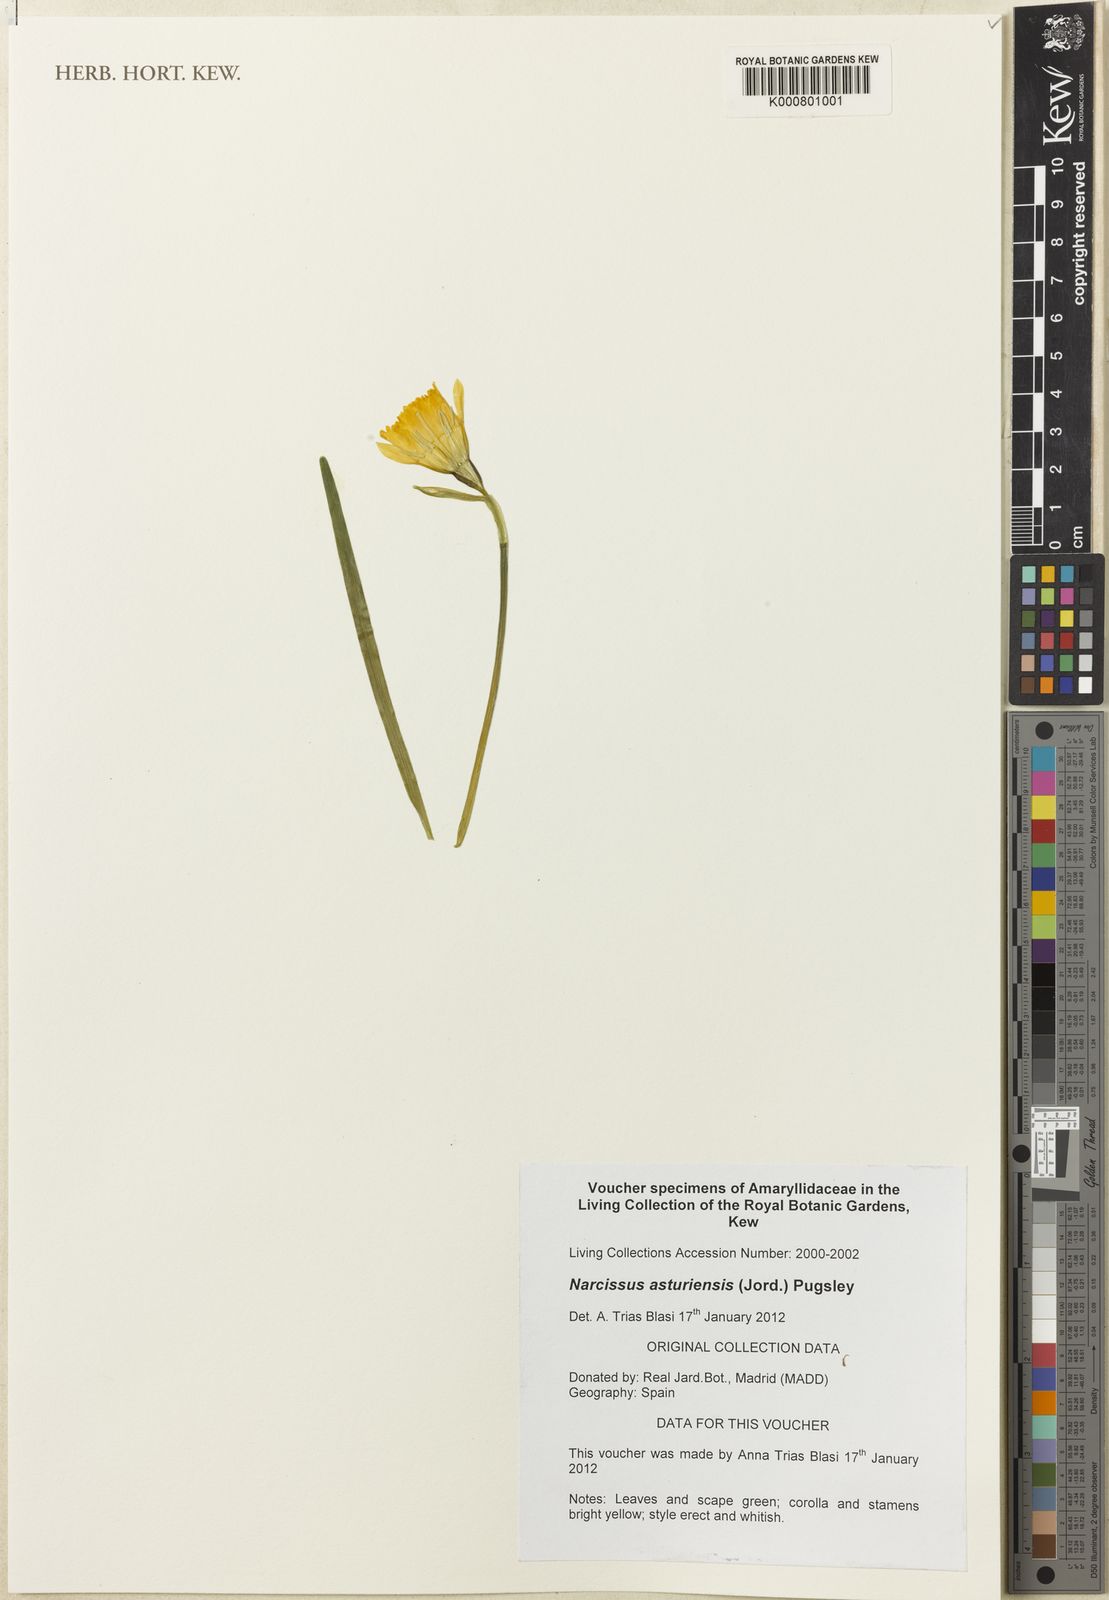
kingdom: Plantae
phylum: Tracheophyta
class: Liliopsida
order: Asparagales
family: Amaryllidaceae
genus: Narcissus
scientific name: Narcissus cuneiflorus
